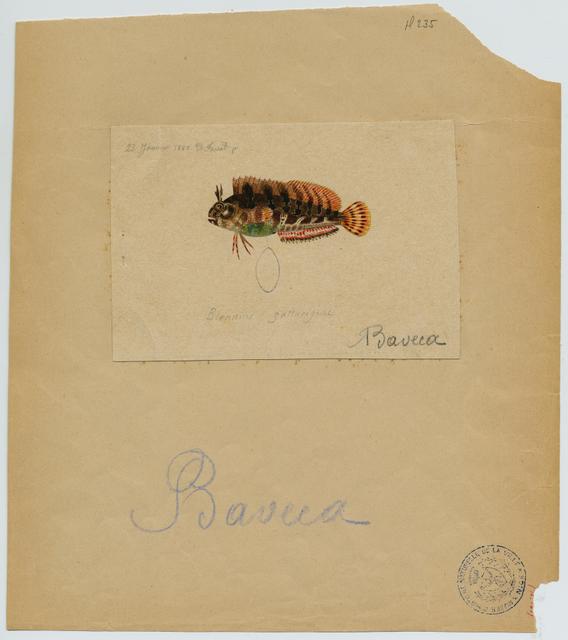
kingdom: Animalia
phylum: Chordata
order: Perciformes
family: Blenniidae
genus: Parablennius
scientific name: Parablennius gattorugine
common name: Tompot blenny
